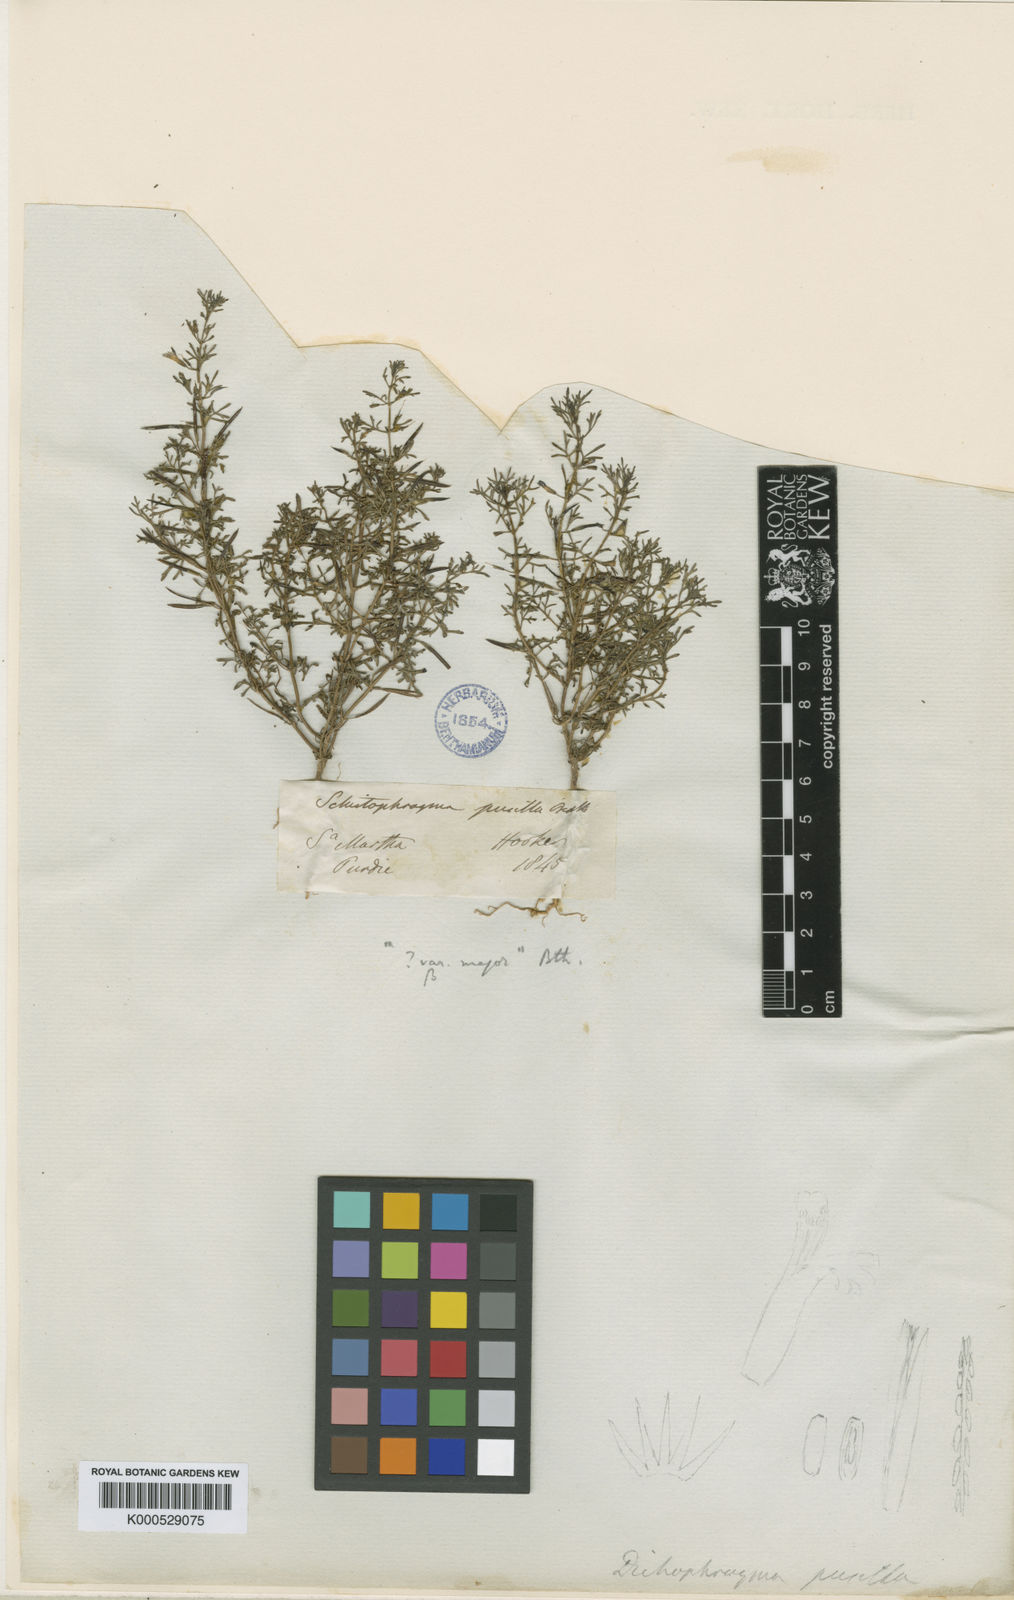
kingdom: Plantae
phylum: Tracheophyta
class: Magnoliopsida
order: Lamiales
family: Plantaginaceae
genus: Schistophragma
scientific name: Schistophragma mexicanum
